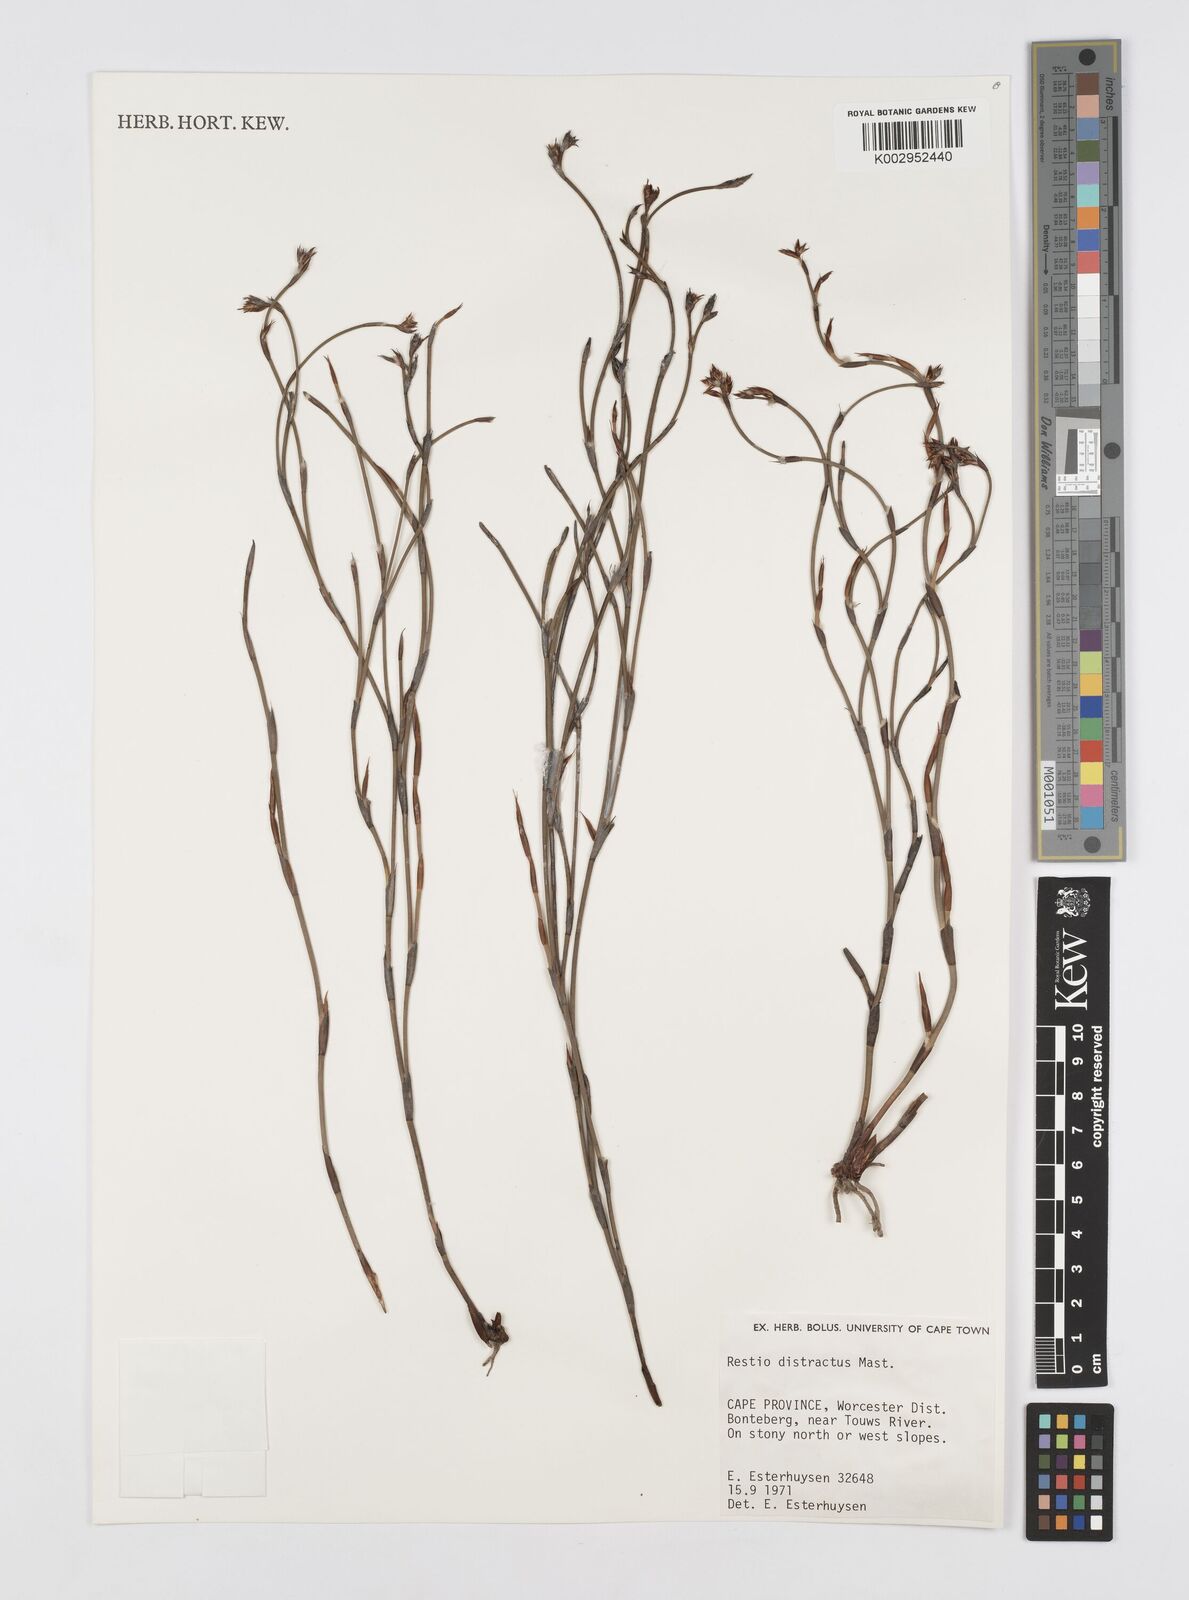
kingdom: Plantae
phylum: Tracheophyta
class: Liliopsida
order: Poales
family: Restionaceae
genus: Restio
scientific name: Restio distractus
